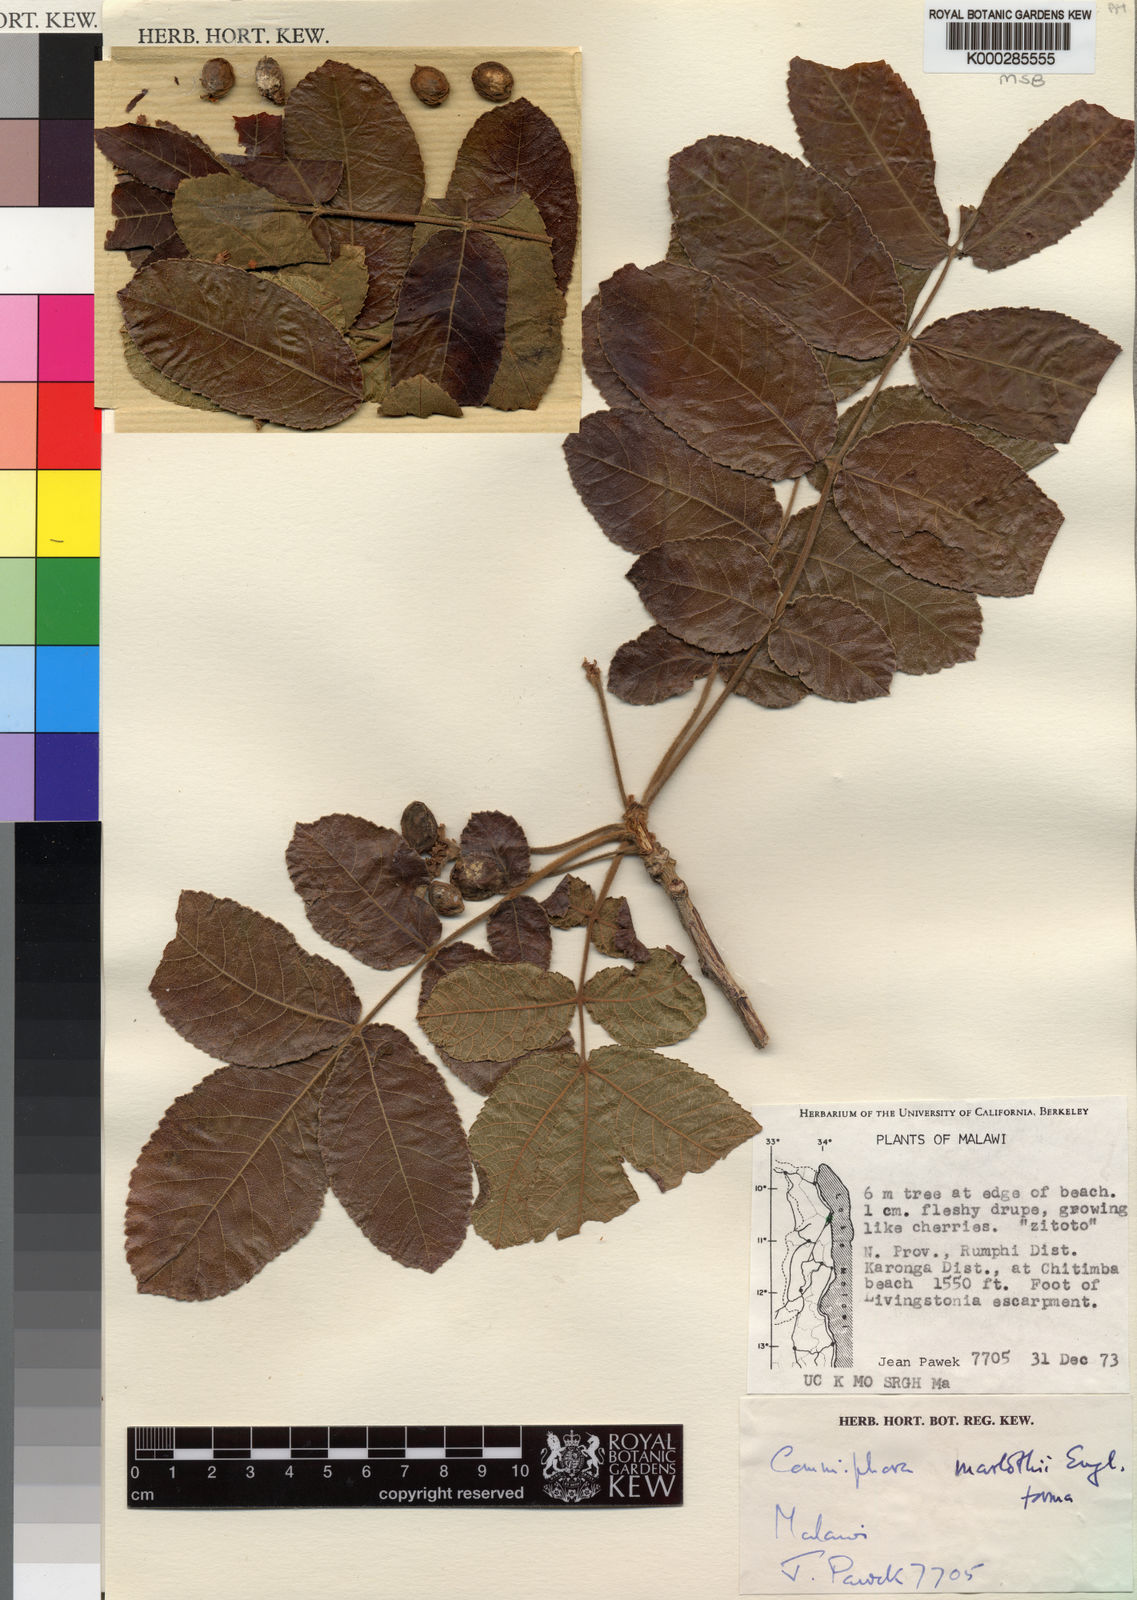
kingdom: Plantae
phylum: Tracheophyta
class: Magnoliopsida
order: Sapindales
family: Burseraceae
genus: Commiphora
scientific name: Commiphora marlothii
